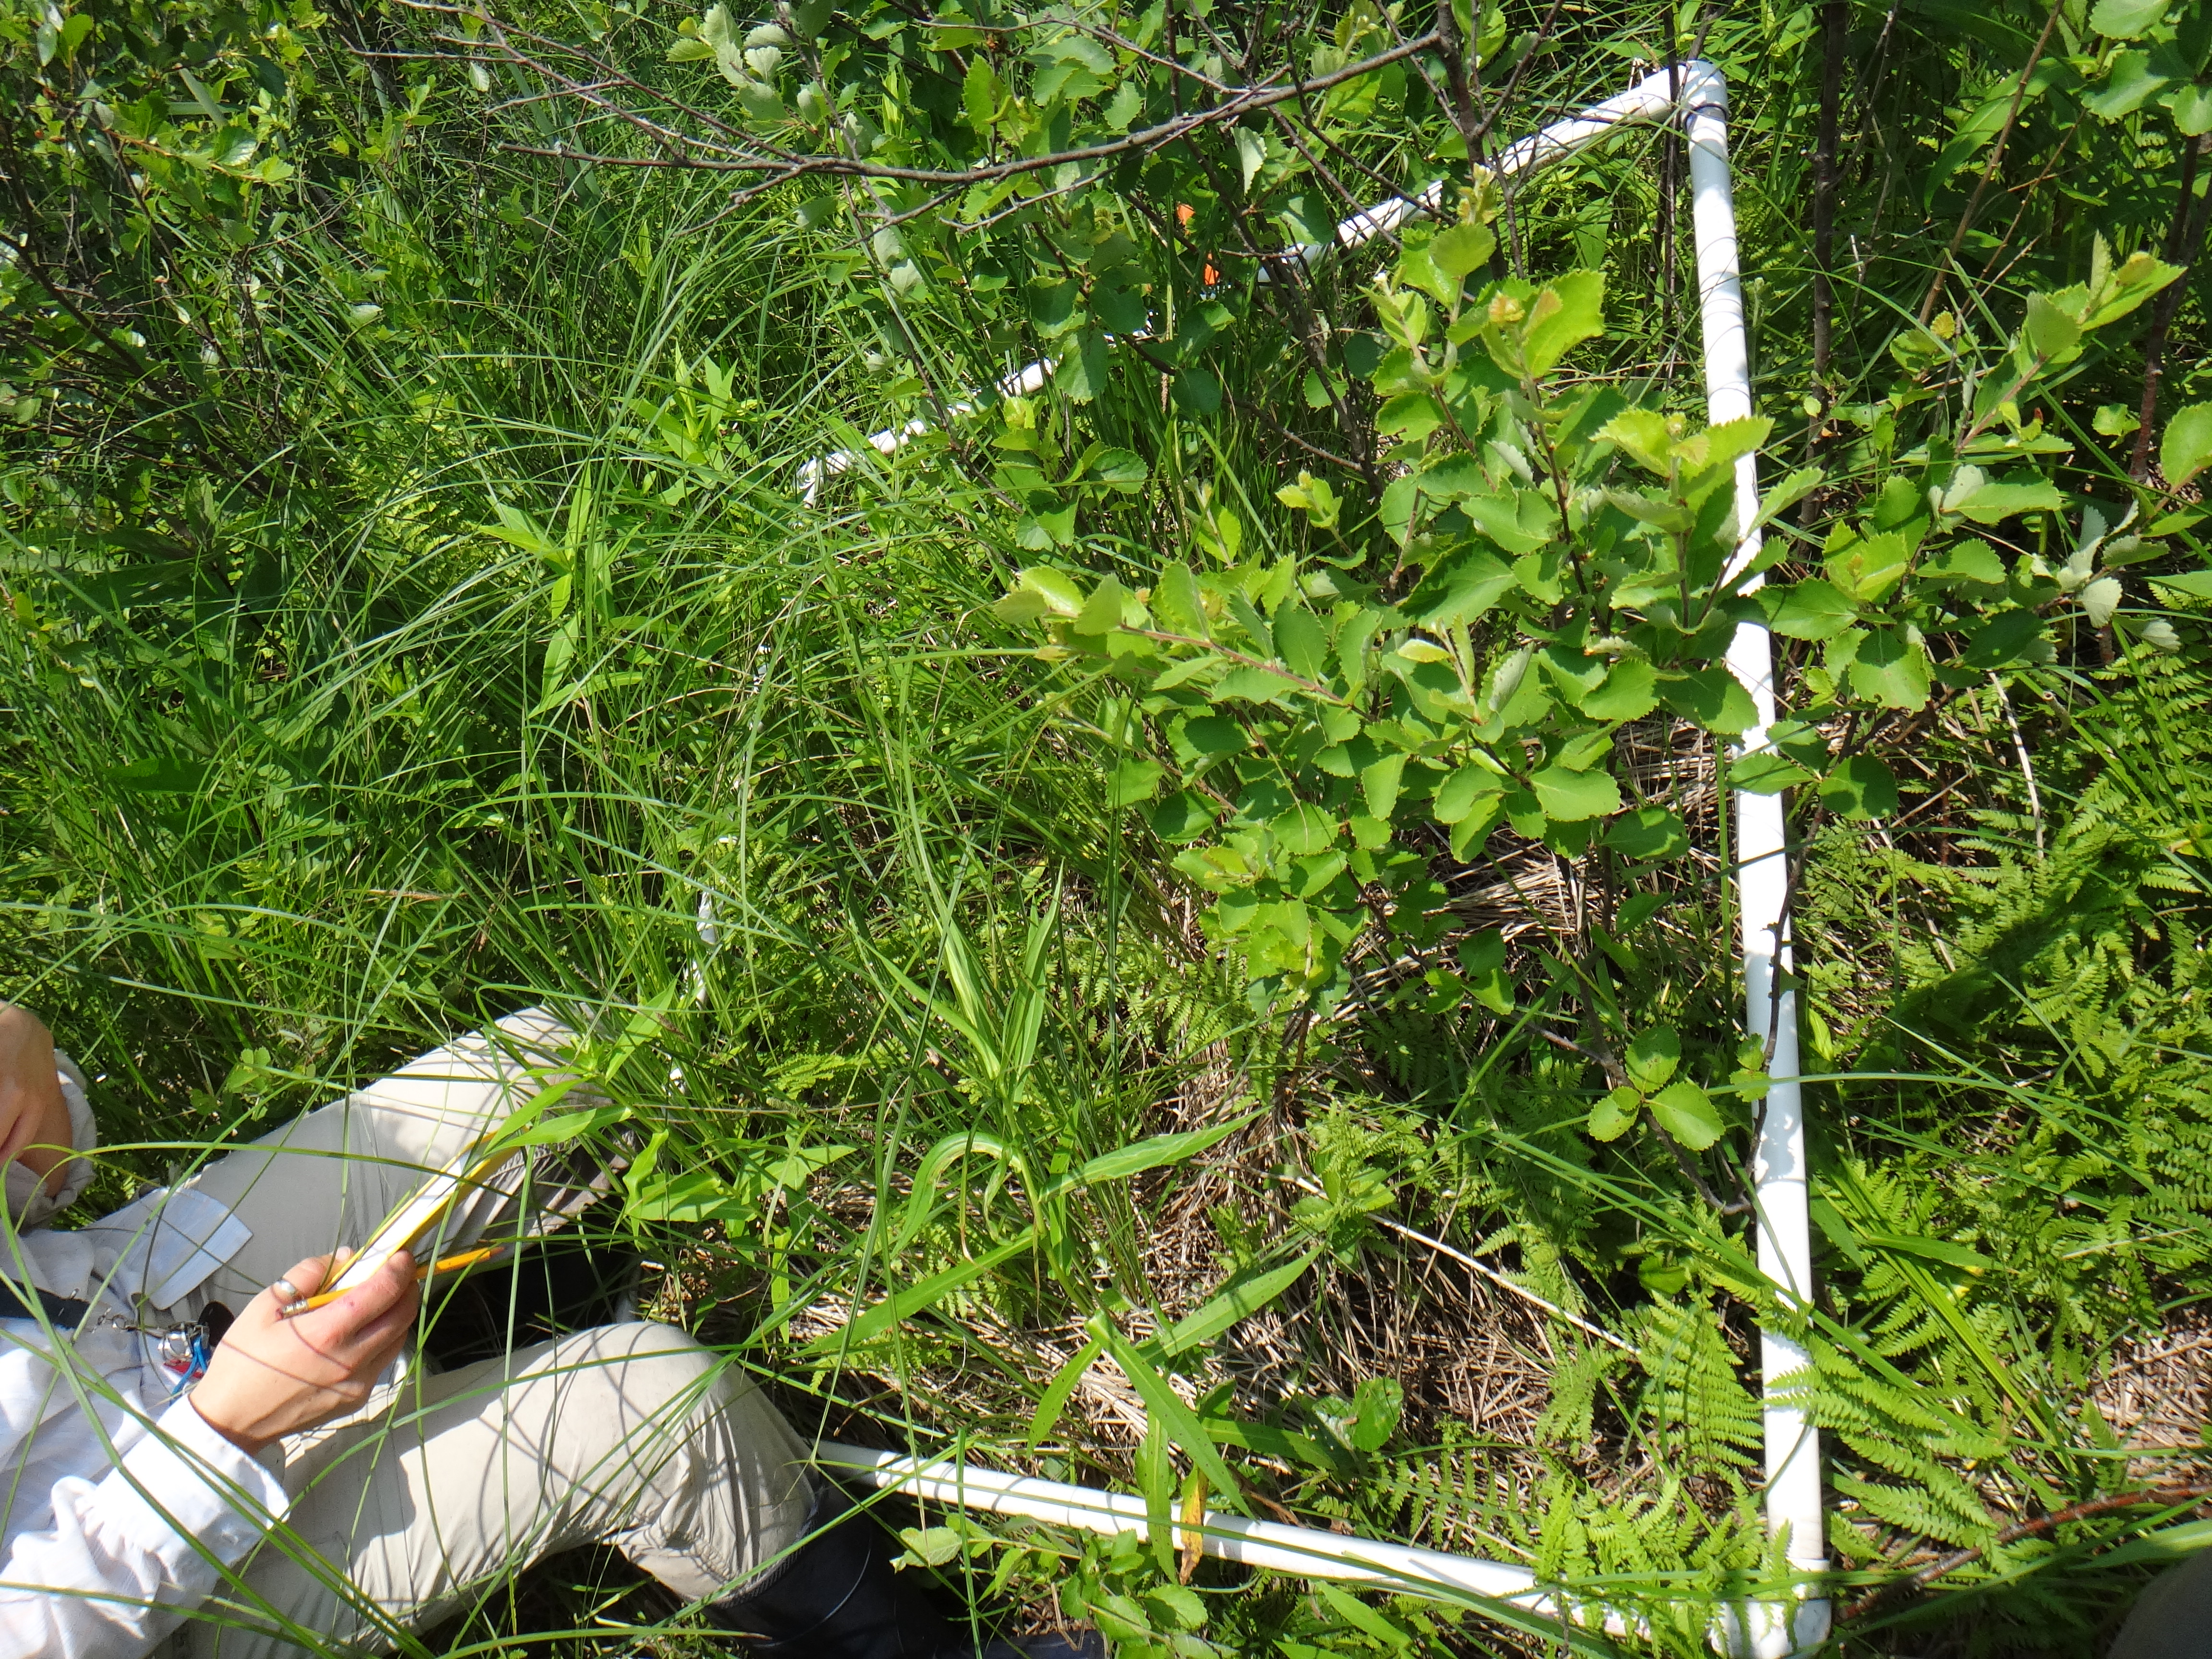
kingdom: Plantae
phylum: Tracheophyta
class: Magnoliopsida
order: Cornales
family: Cornaceae
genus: Cornus
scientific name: Cornus foemina
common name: Swamp dogwood
